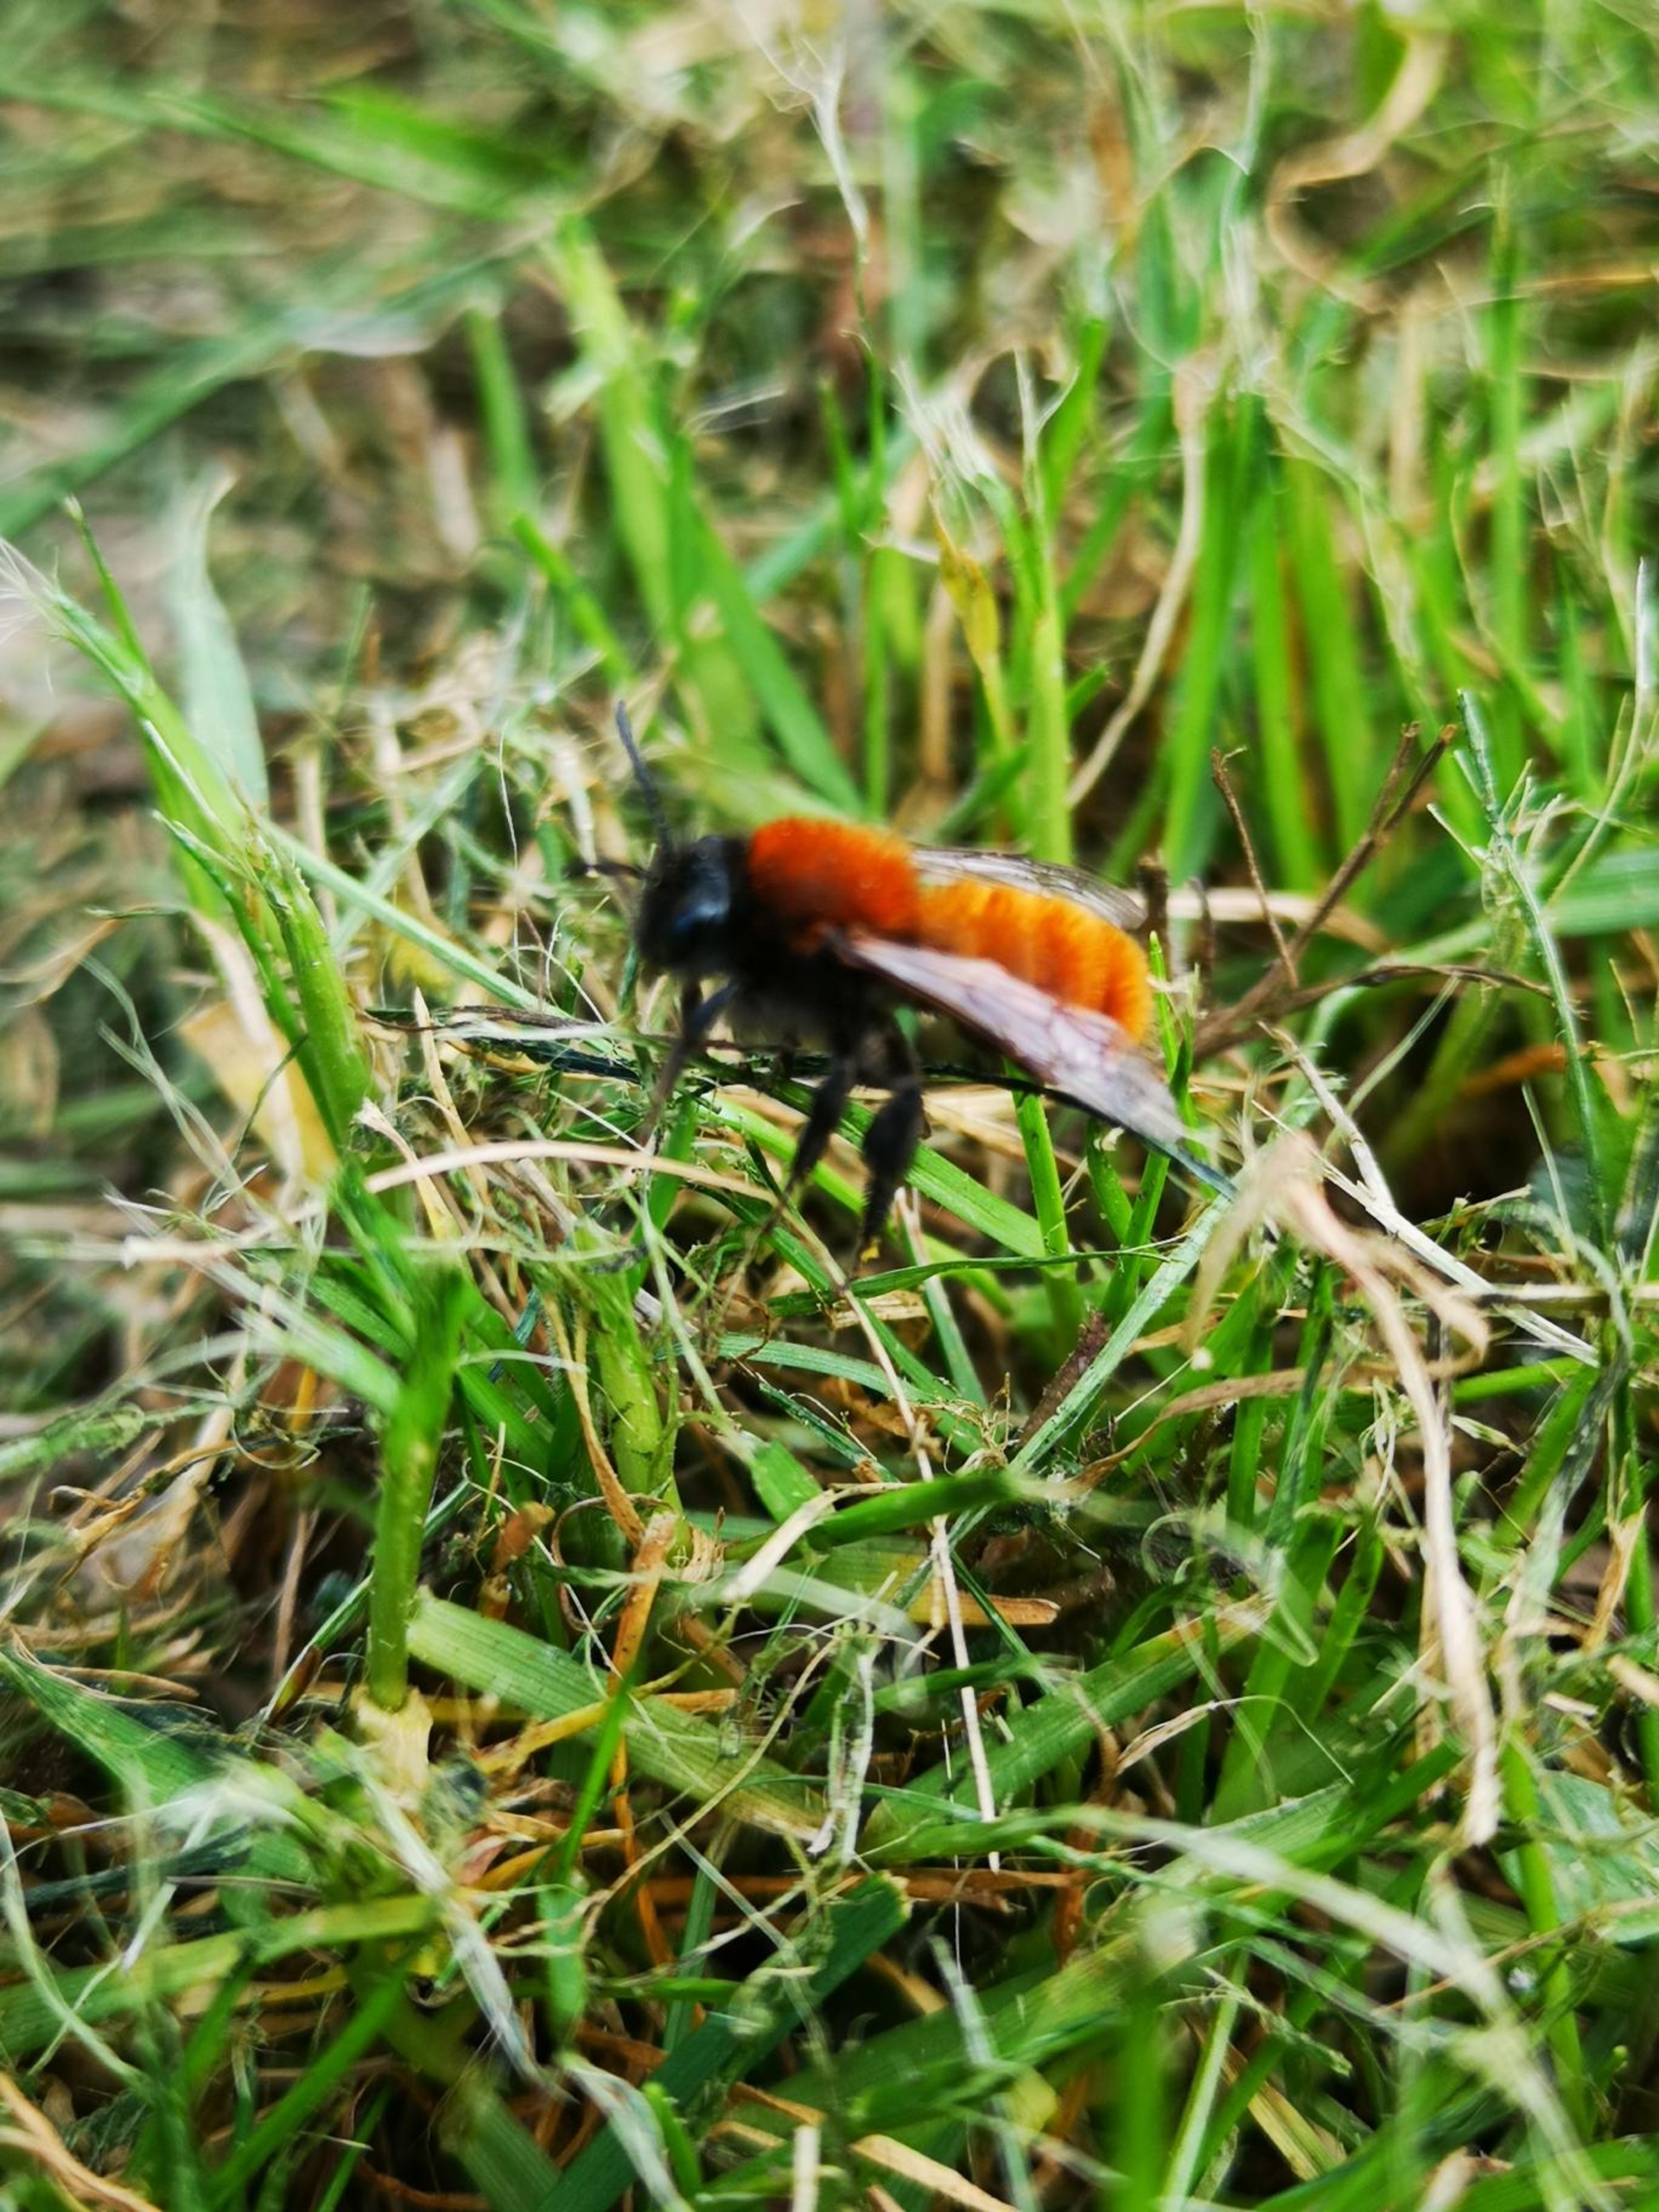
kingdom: Animalia
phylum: Arthropoda
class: Insecta
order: Hymenoptera
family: Andrenidae
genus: Andrena
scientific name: Andrena fulva
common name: Rødpelset jordbi
